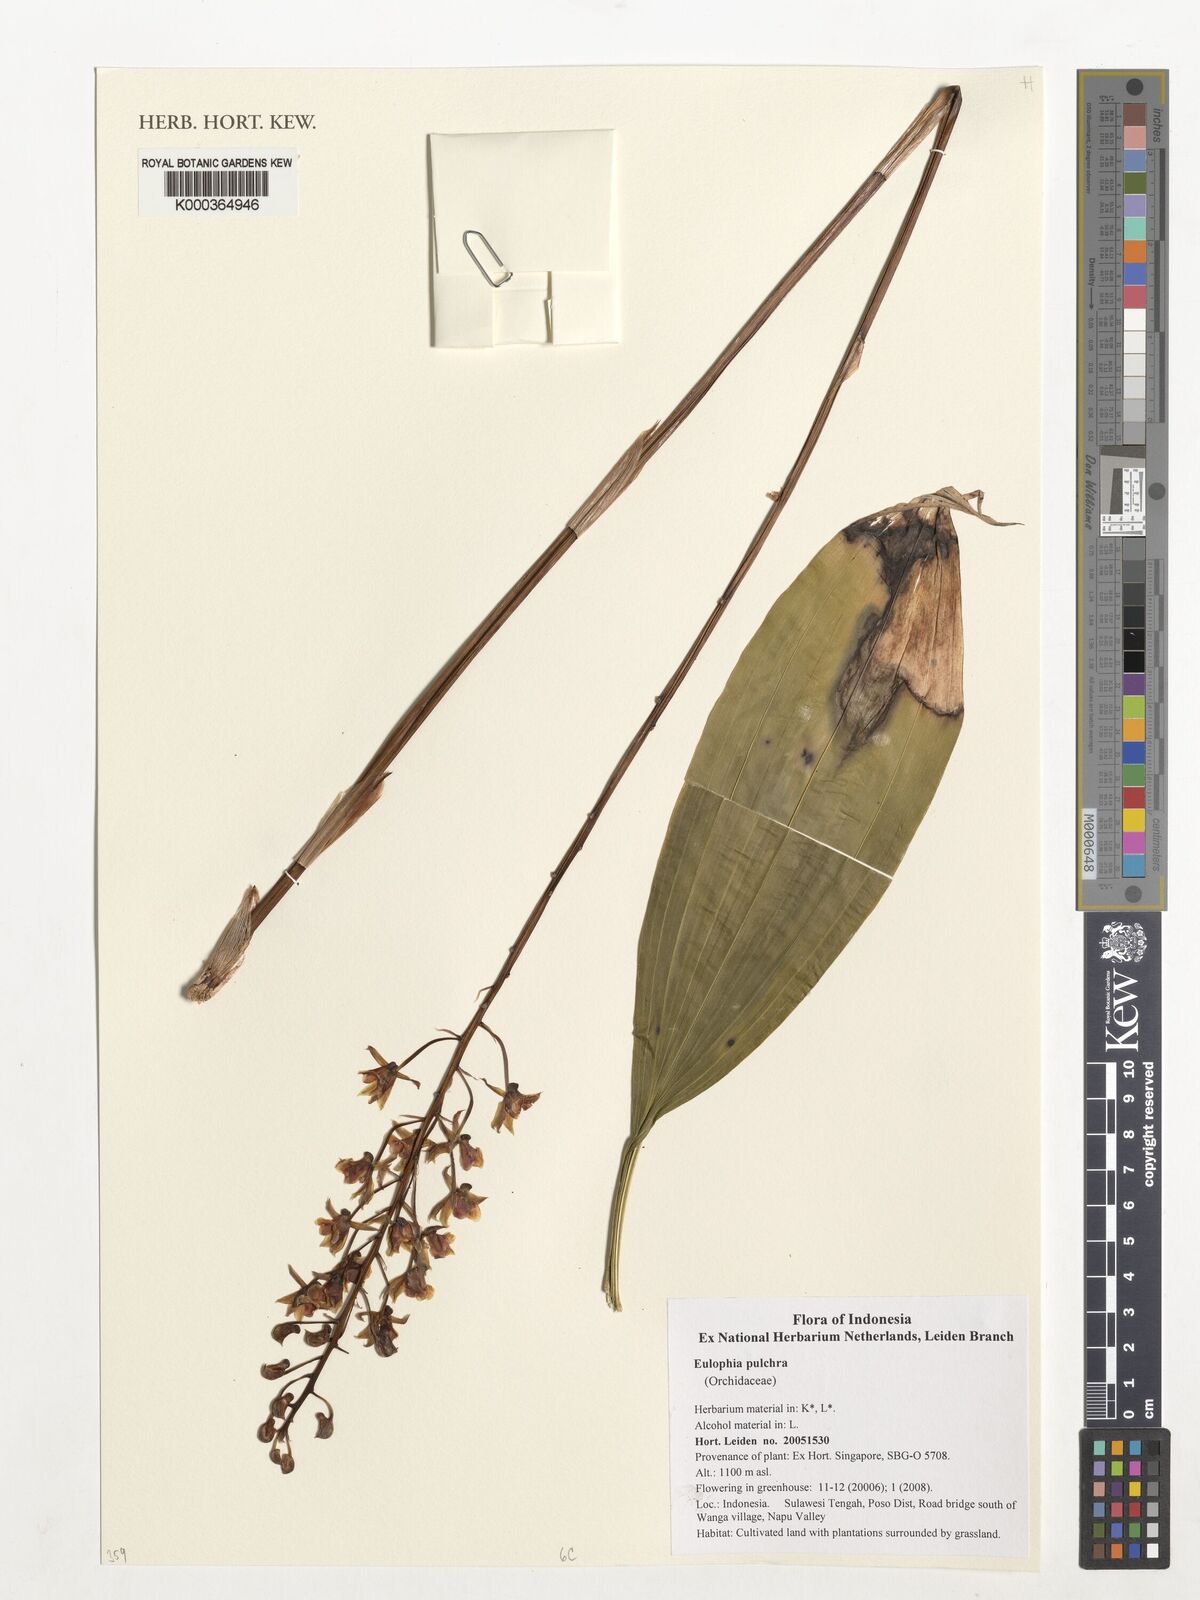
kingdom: Plantae
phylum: Tracheophyta
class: Liliopsida
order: Asparagales
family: Orchidaceae
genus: Eulophia
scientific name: Eulophia pulchra
